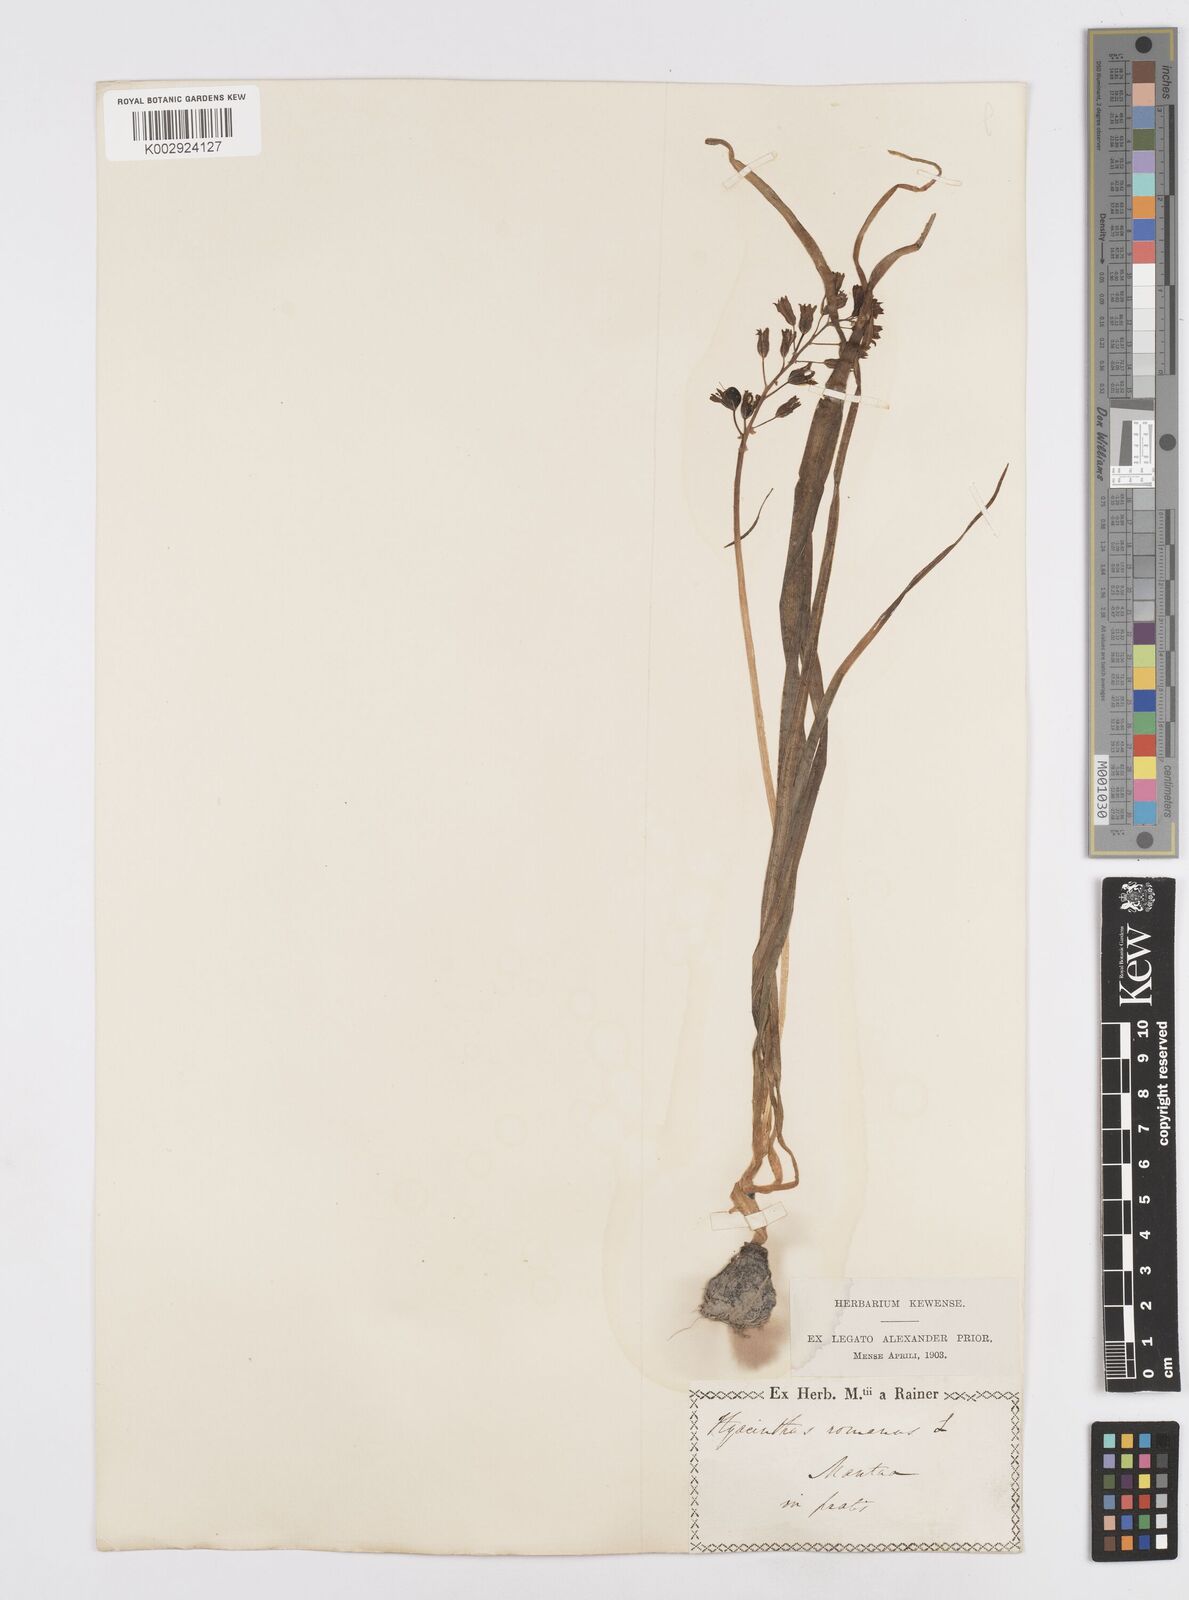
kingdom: Plantae
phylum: Tracheophyta
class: Liliopsida
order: Asparagales
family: Asparagaceae
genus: Bellevalia
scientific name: Bellevalia
